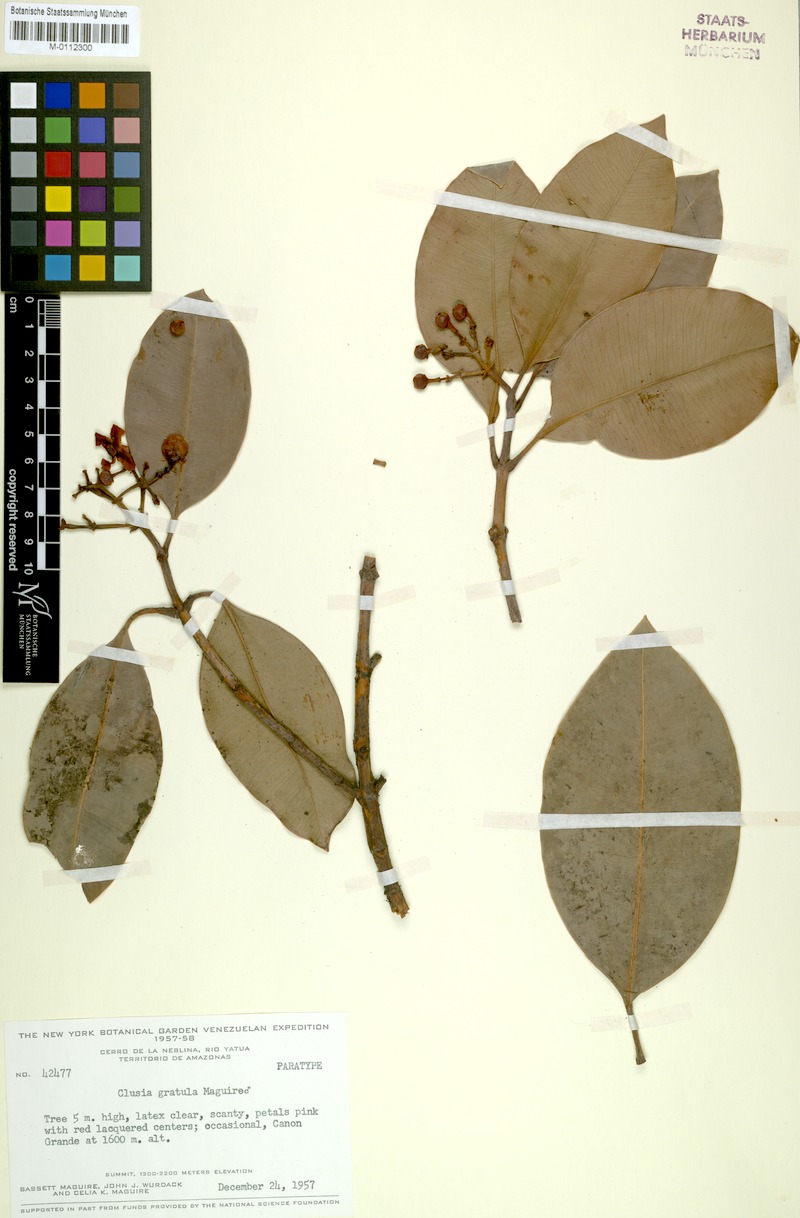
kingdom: Plantae
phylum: Tracheophyta
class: Magnoliopsida
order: Malpighiales
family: Clusiaceae
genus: Clusia
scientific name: Clusia gratula
